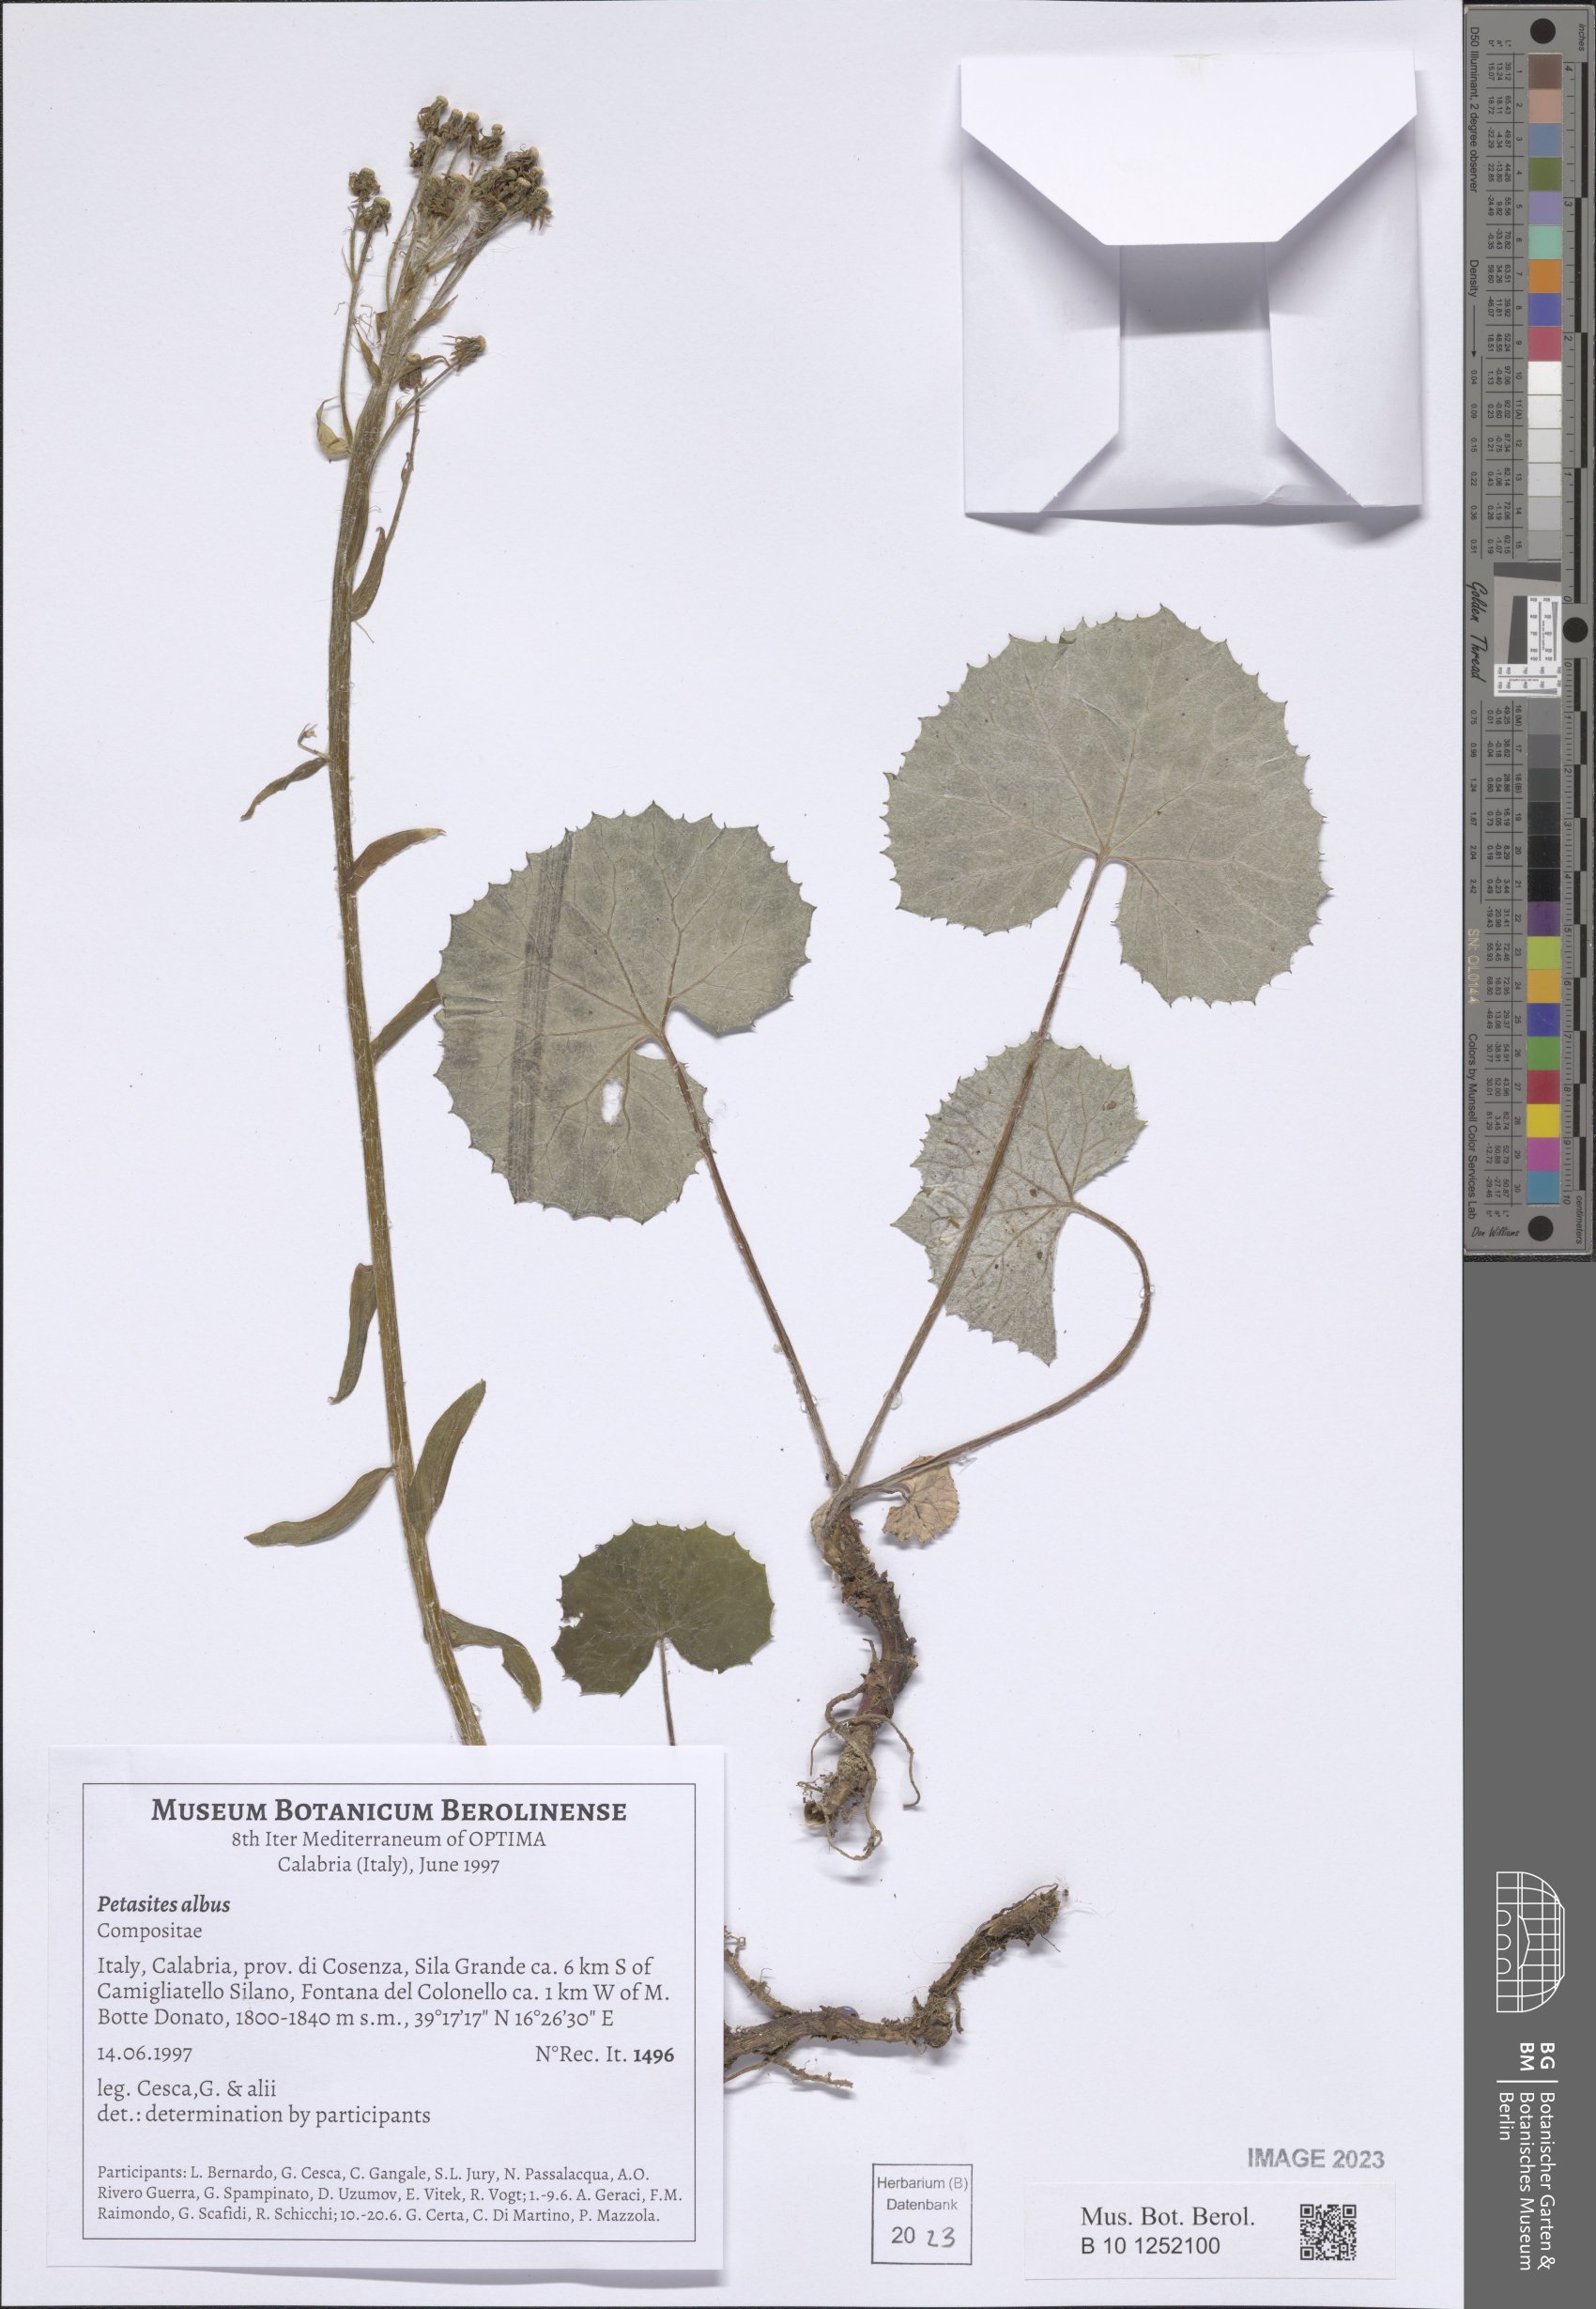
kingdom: Plantae
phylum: Tracheophyta
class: Magnoliopsida
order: Asterales
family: Asteraceae
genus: Petasites
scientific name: Petasites albus
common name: White butterbur
